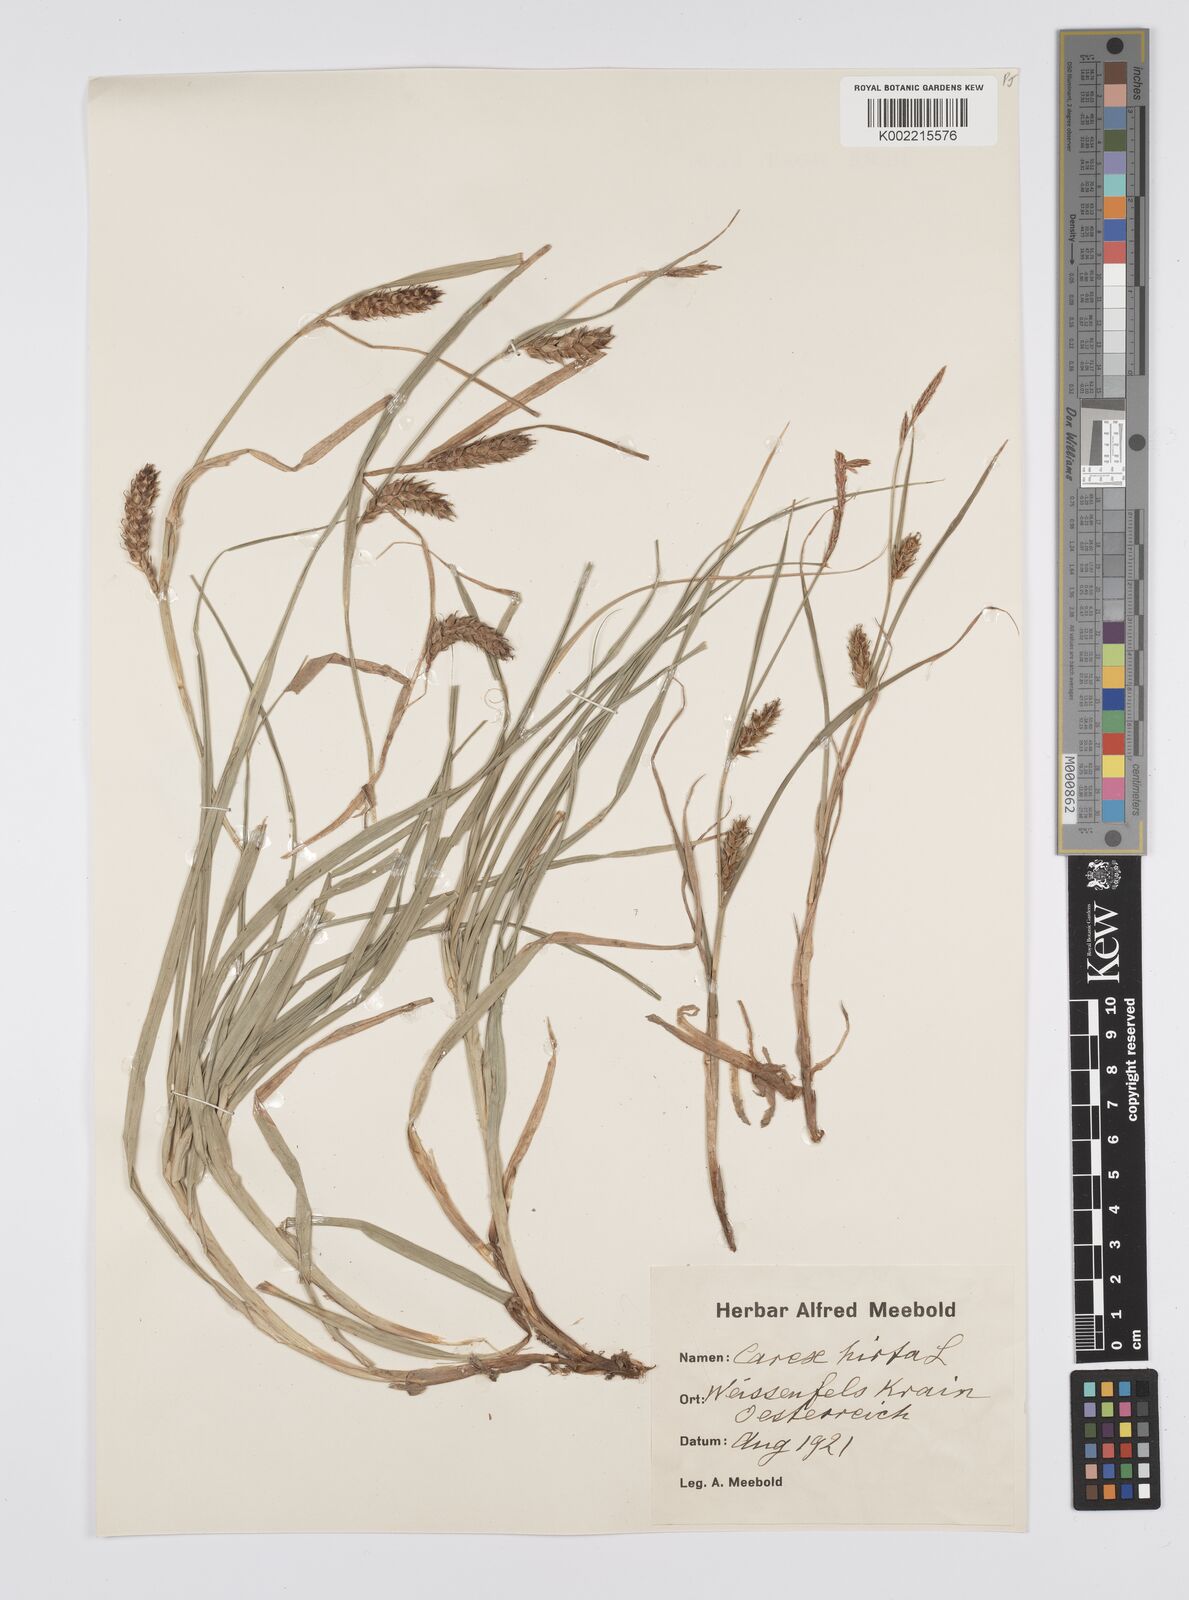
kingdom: Plantae
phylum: Tracheophyta
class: Liliopsida
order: Poales
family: Cyperaceae
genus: Carex
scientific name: Carex hirta
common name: Hairy sedge
